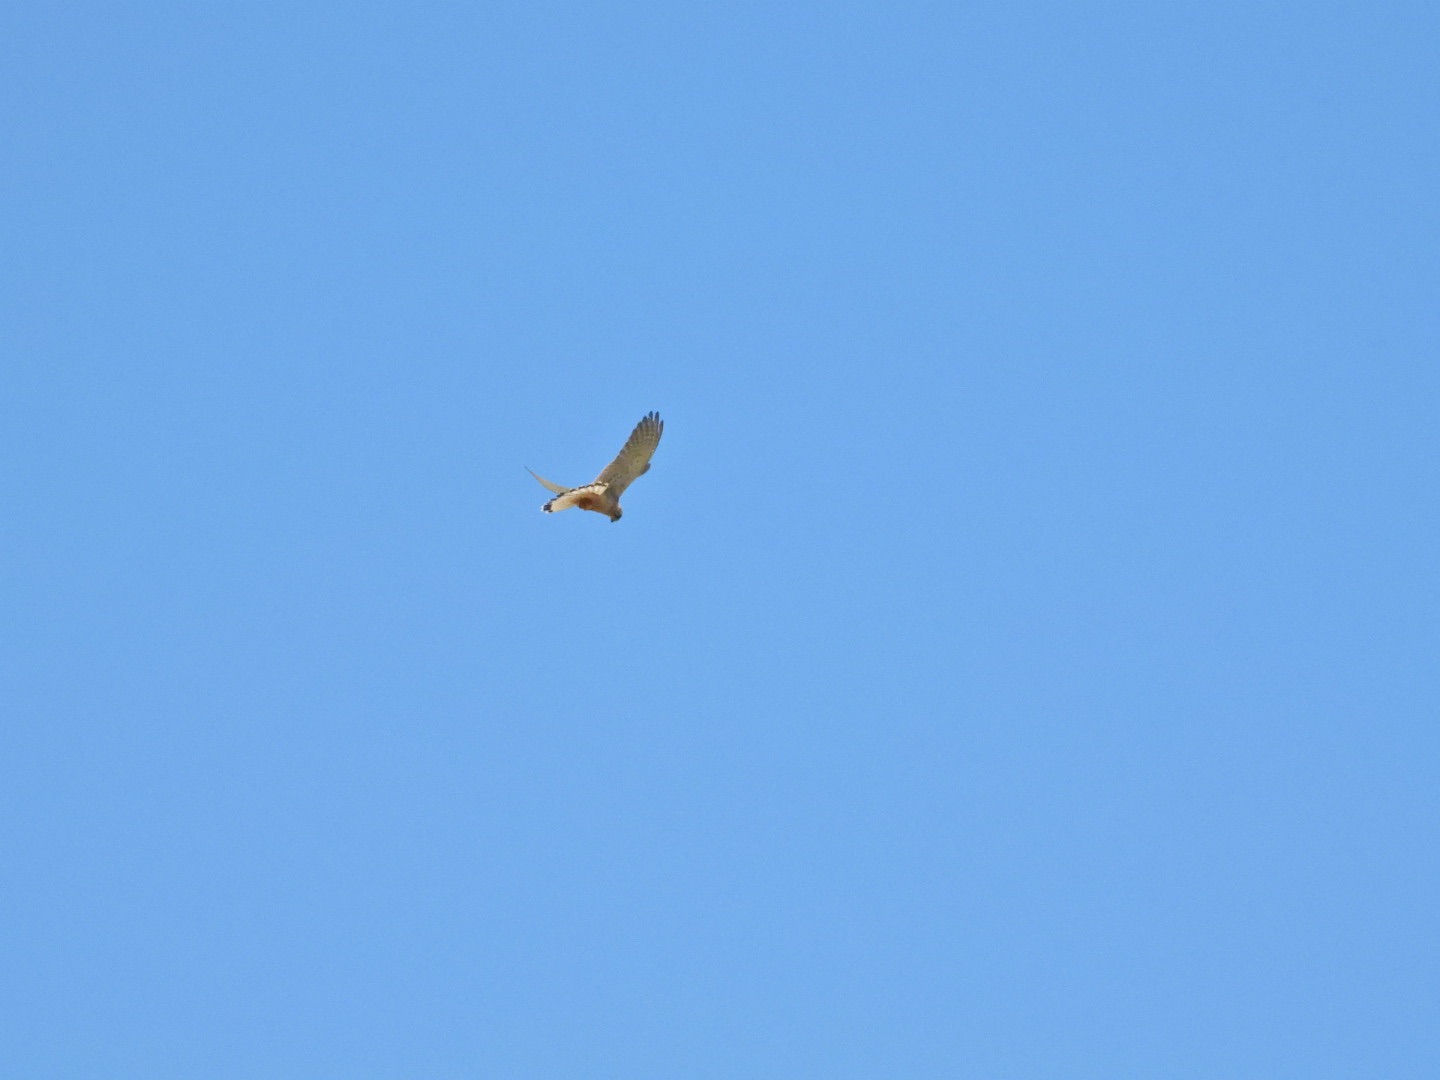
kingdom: Animalia
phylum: Chordata
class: Aves
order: Falconiformes
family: Falconidae
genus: Falco
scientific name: Falco tinnunculus
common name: Tårnfalk
